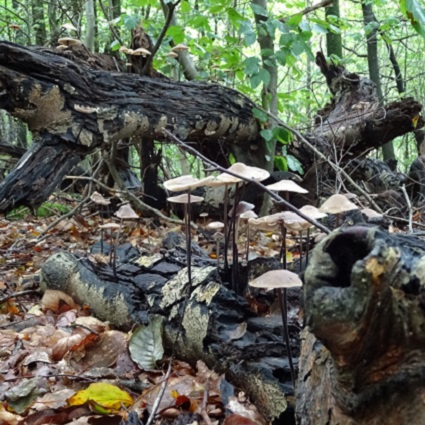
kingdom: Fungi
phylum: Basidiomycota
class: Agaricomycetes
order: Agaricales
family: Omphalotaceae
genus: Mycetinis
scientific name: Mycetinis alliaceus
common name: stor løghat
